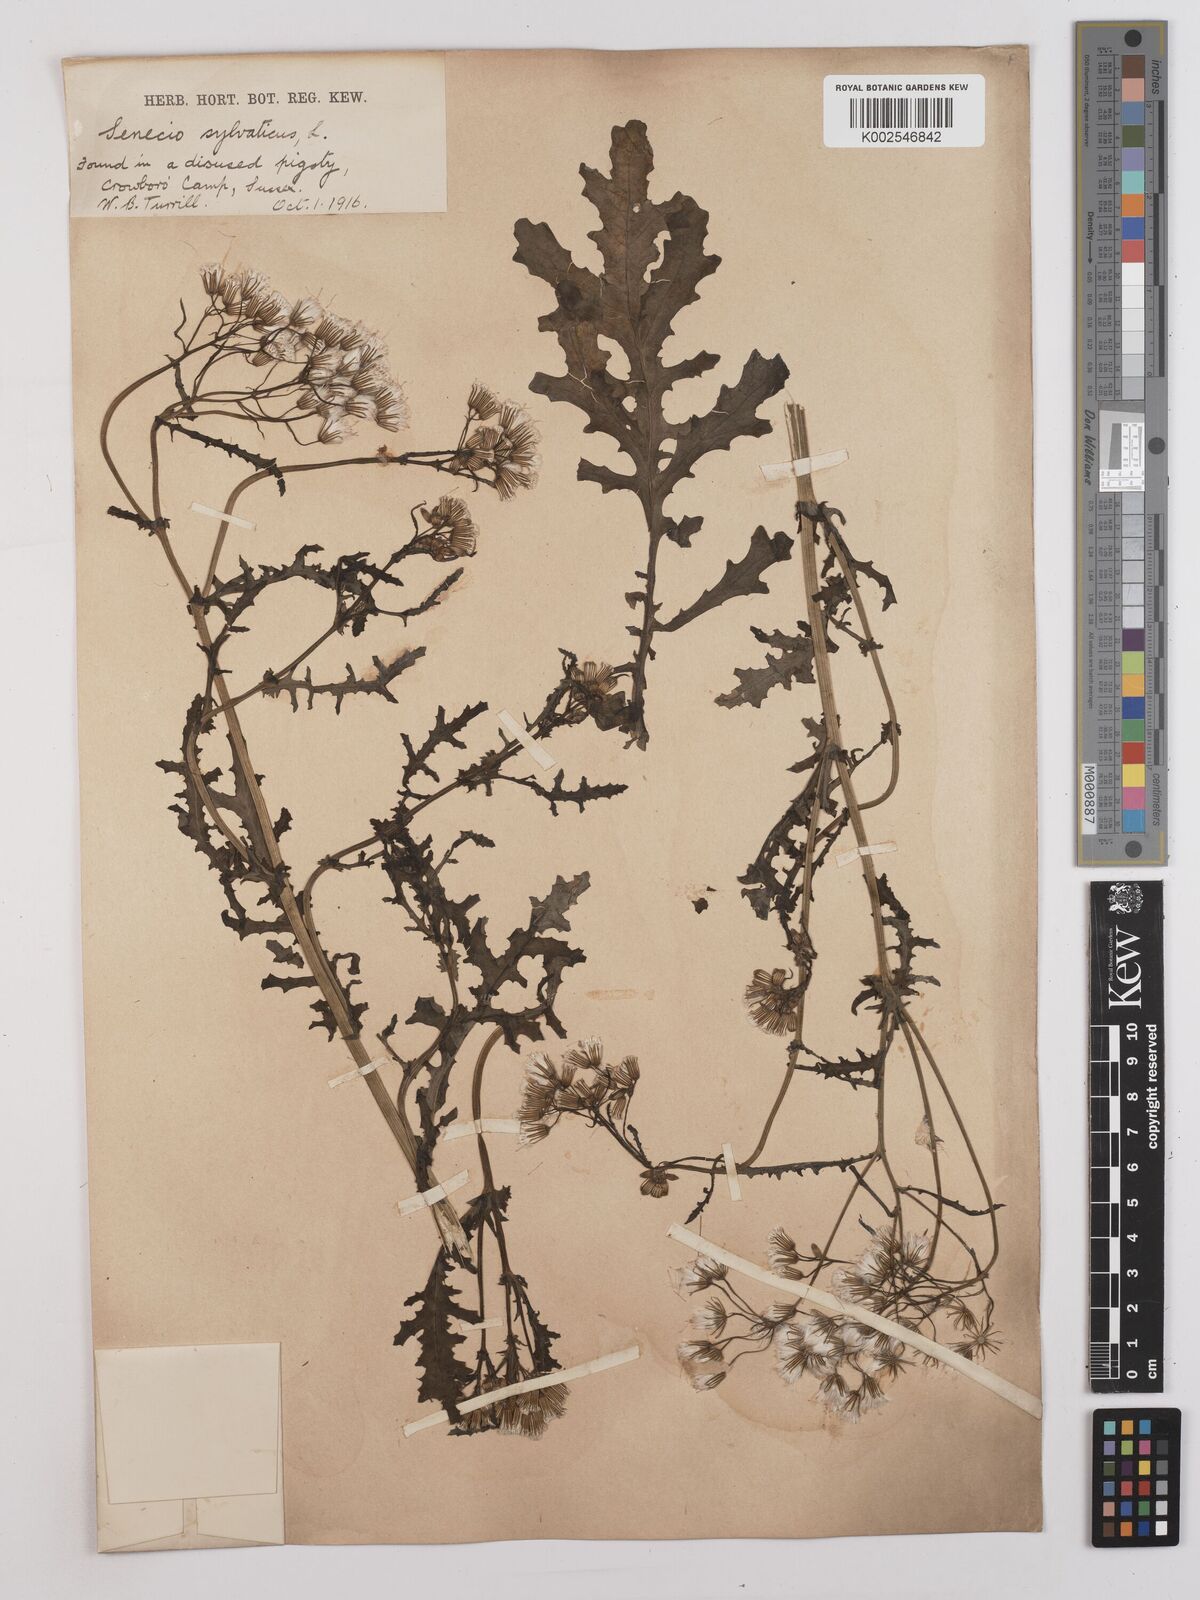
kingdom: Plantae
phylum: Tracheophyta
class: Magnoliopsida
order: Asterales
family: Asteraceae
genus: Senecio
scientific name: Senecio sylvaticus
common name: Woodland ragwort
